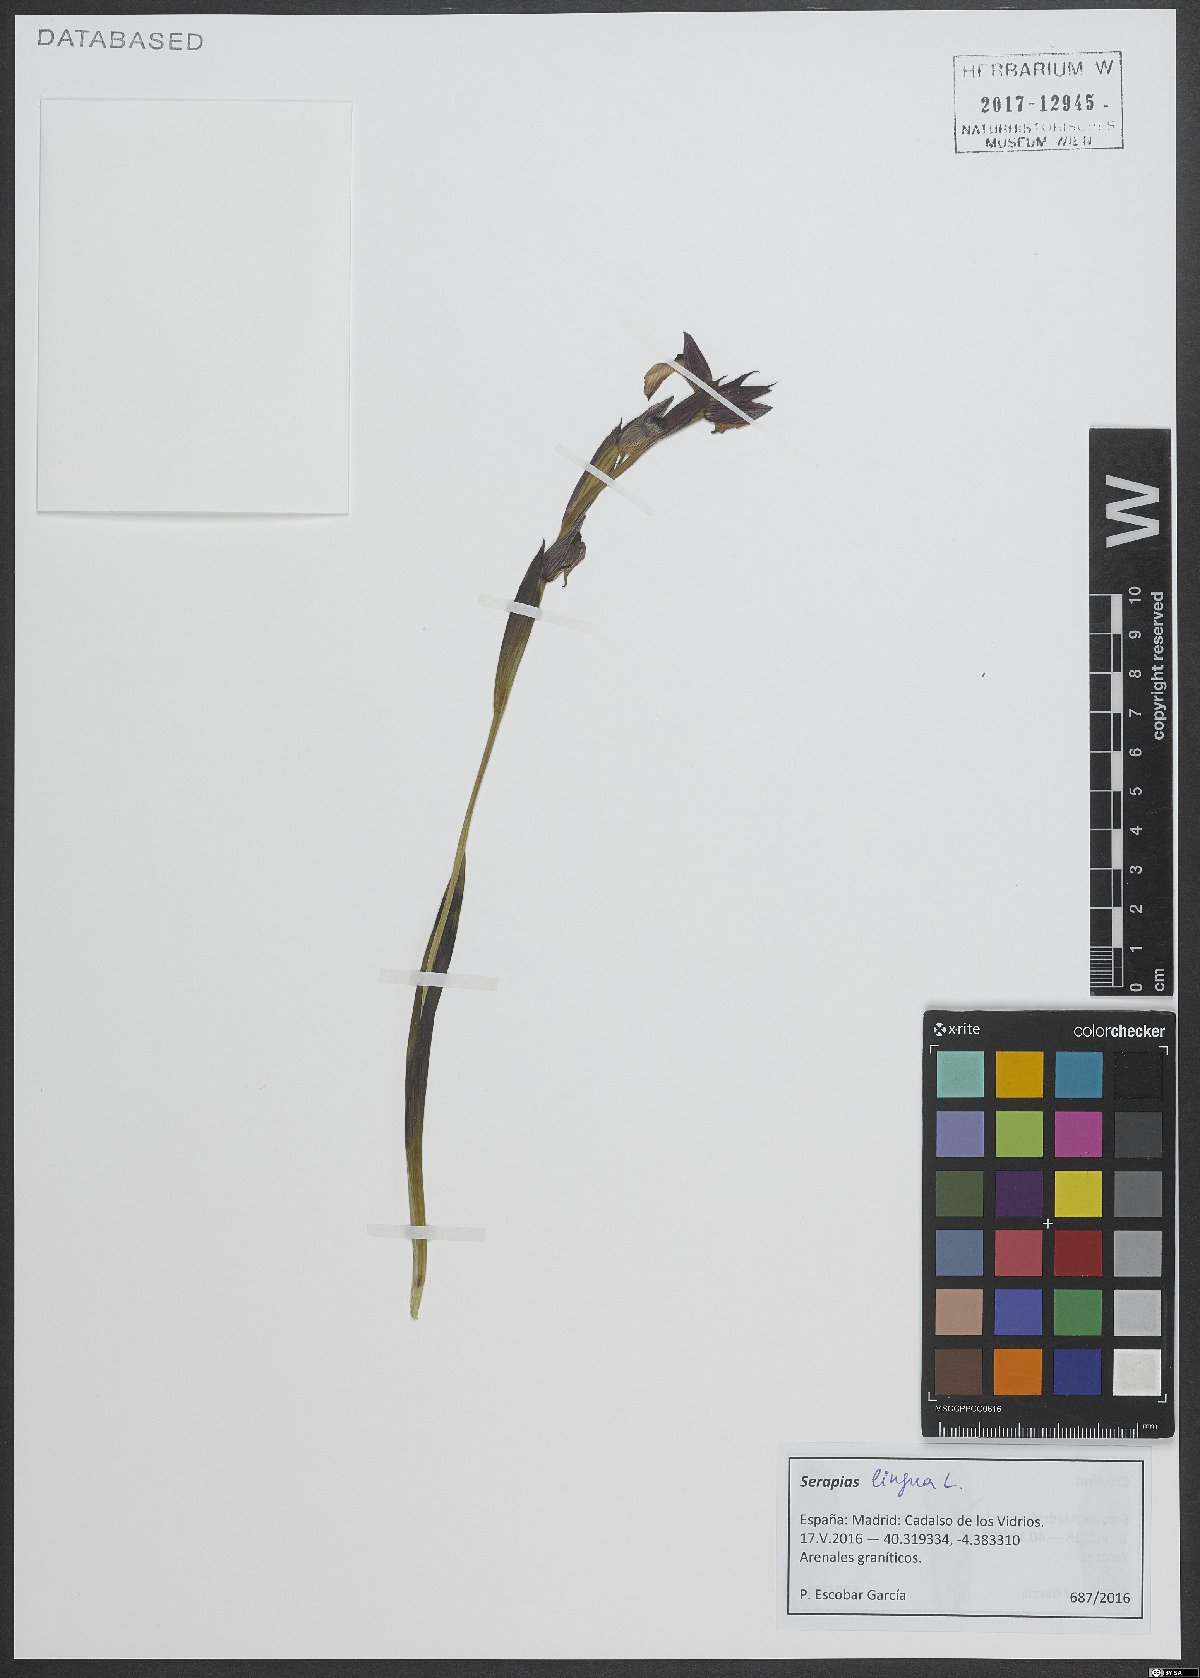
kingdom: Plantae
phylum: Tracheophyta
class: Liliopsida
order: Asparagales
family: Orchidaceae
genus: Serapias
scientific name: Serapias lingua
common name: Tongue-orchid
